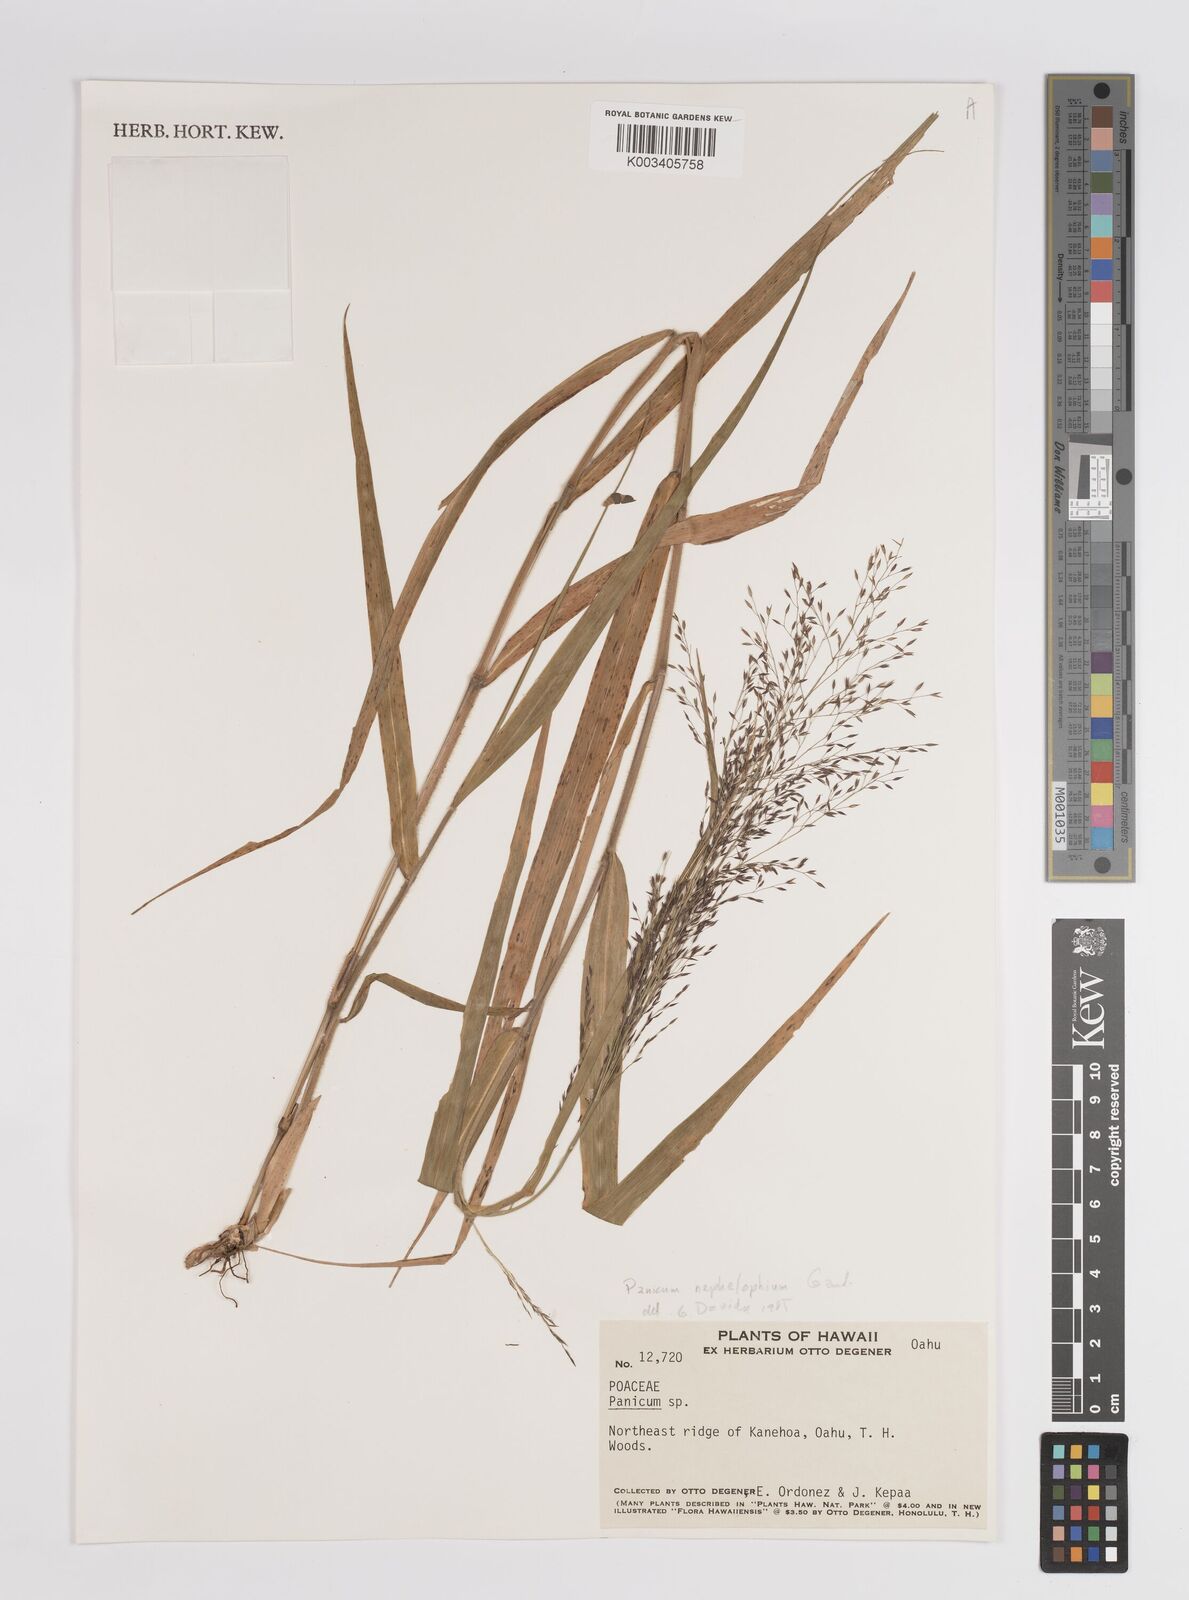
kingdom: Plantae
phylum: Tracheophyta
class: Liliopsida
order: Poales
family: Poaceae
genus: Panicum
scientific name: Panicum nephelophilum
